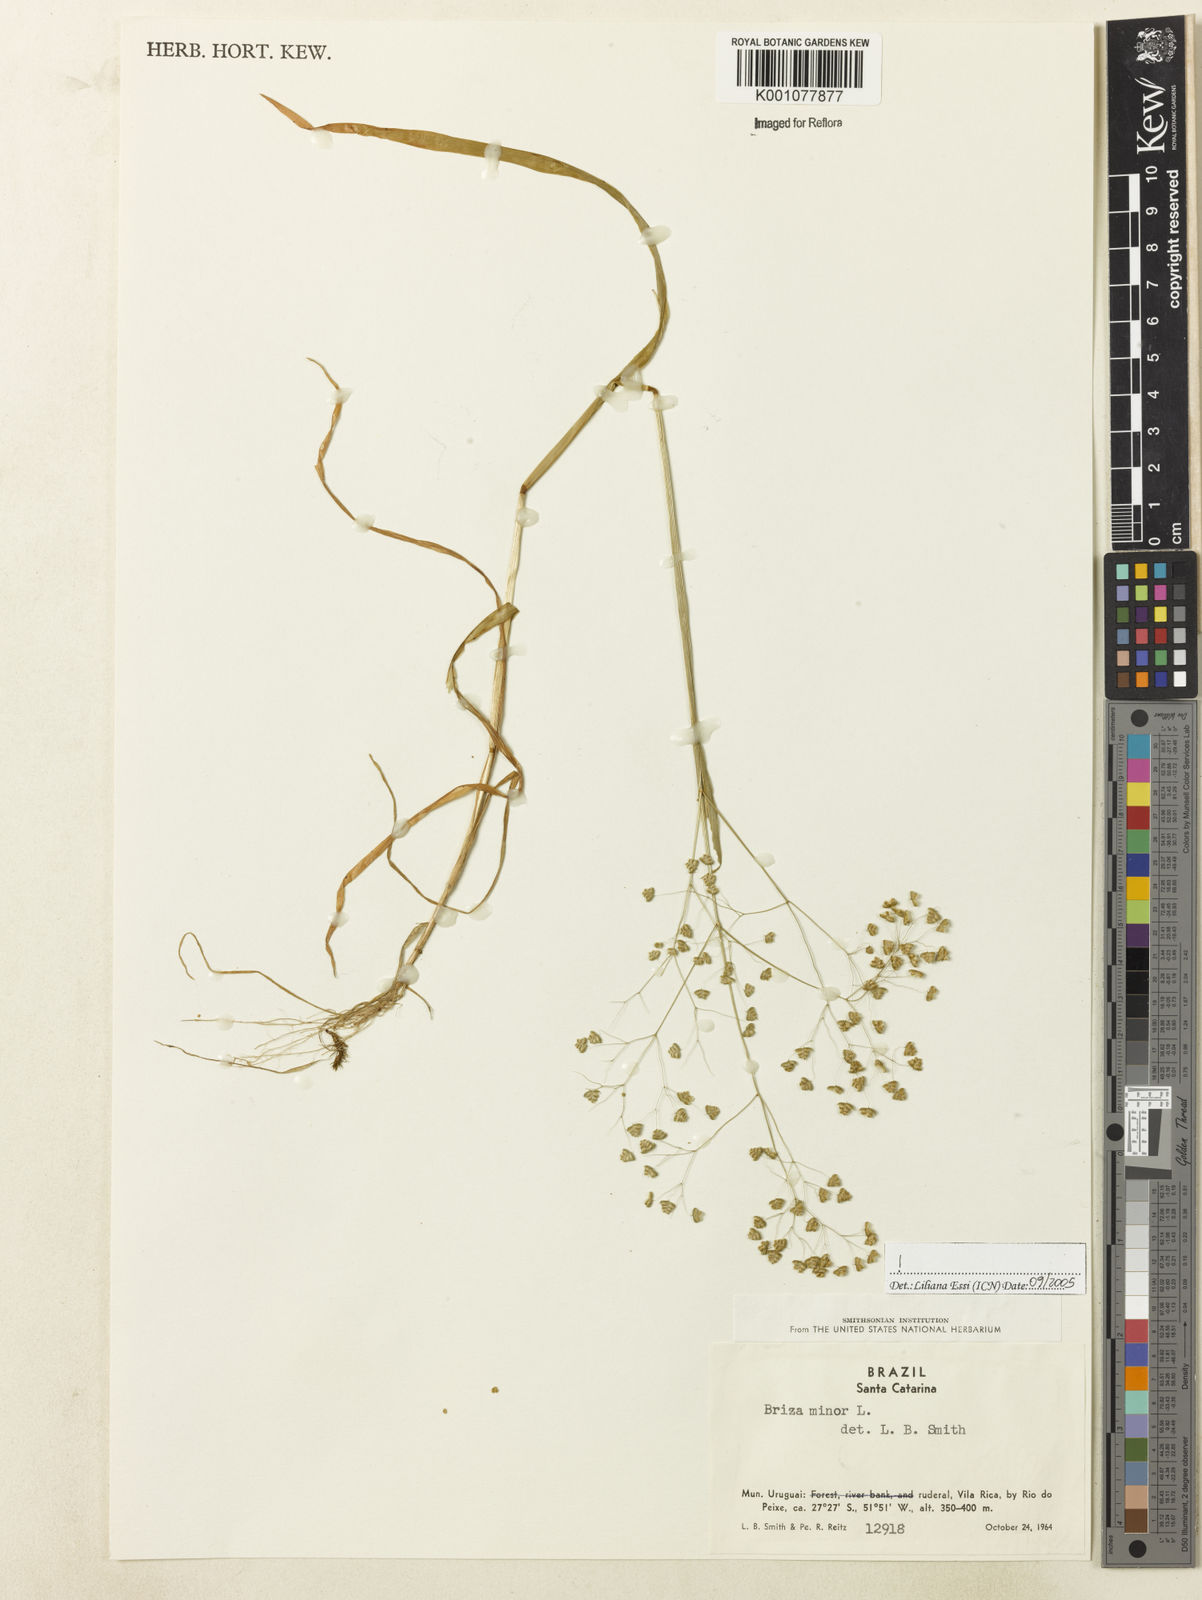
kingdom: Plantae
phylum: Tracheophyta
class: Liliopsida
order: Poales
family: Poaceae
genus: Briza
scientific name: Briza minor
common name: Lesser quaking-grass
